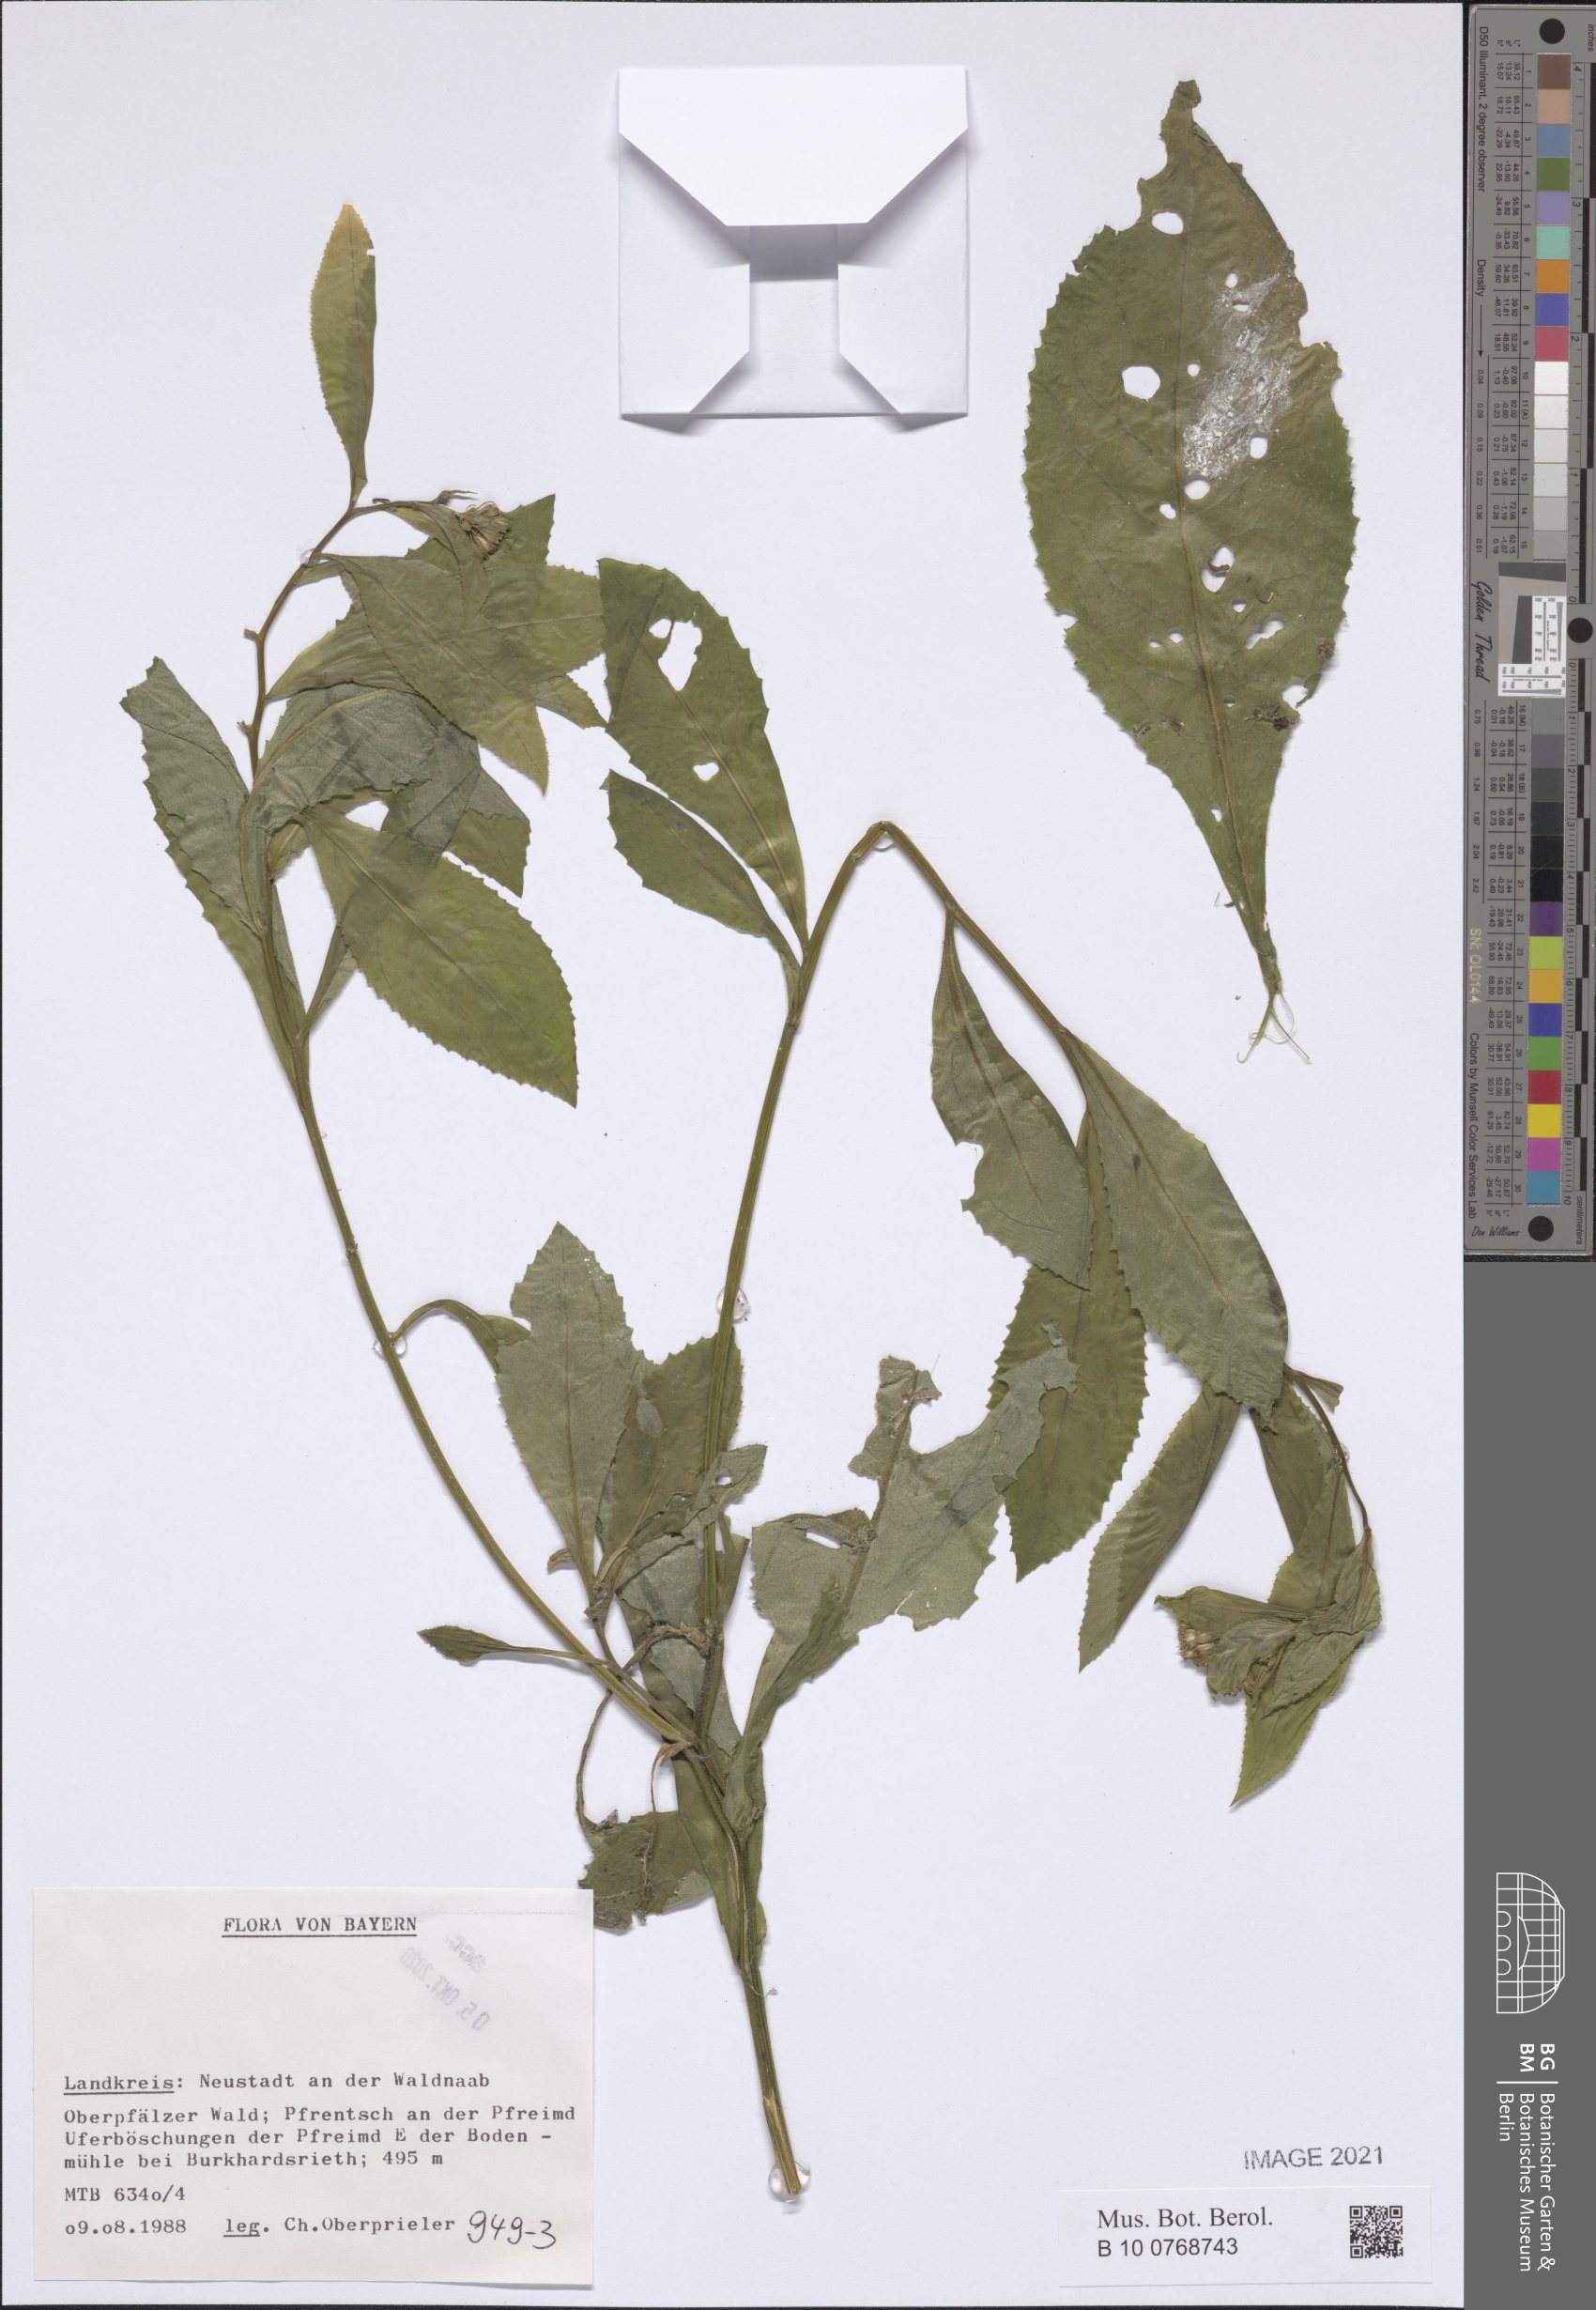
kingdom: Plantae
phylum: Tracheophyta
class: Magnoliopsida
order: Asterales
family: Asteraceae
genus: Senecio
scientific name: Senecio
